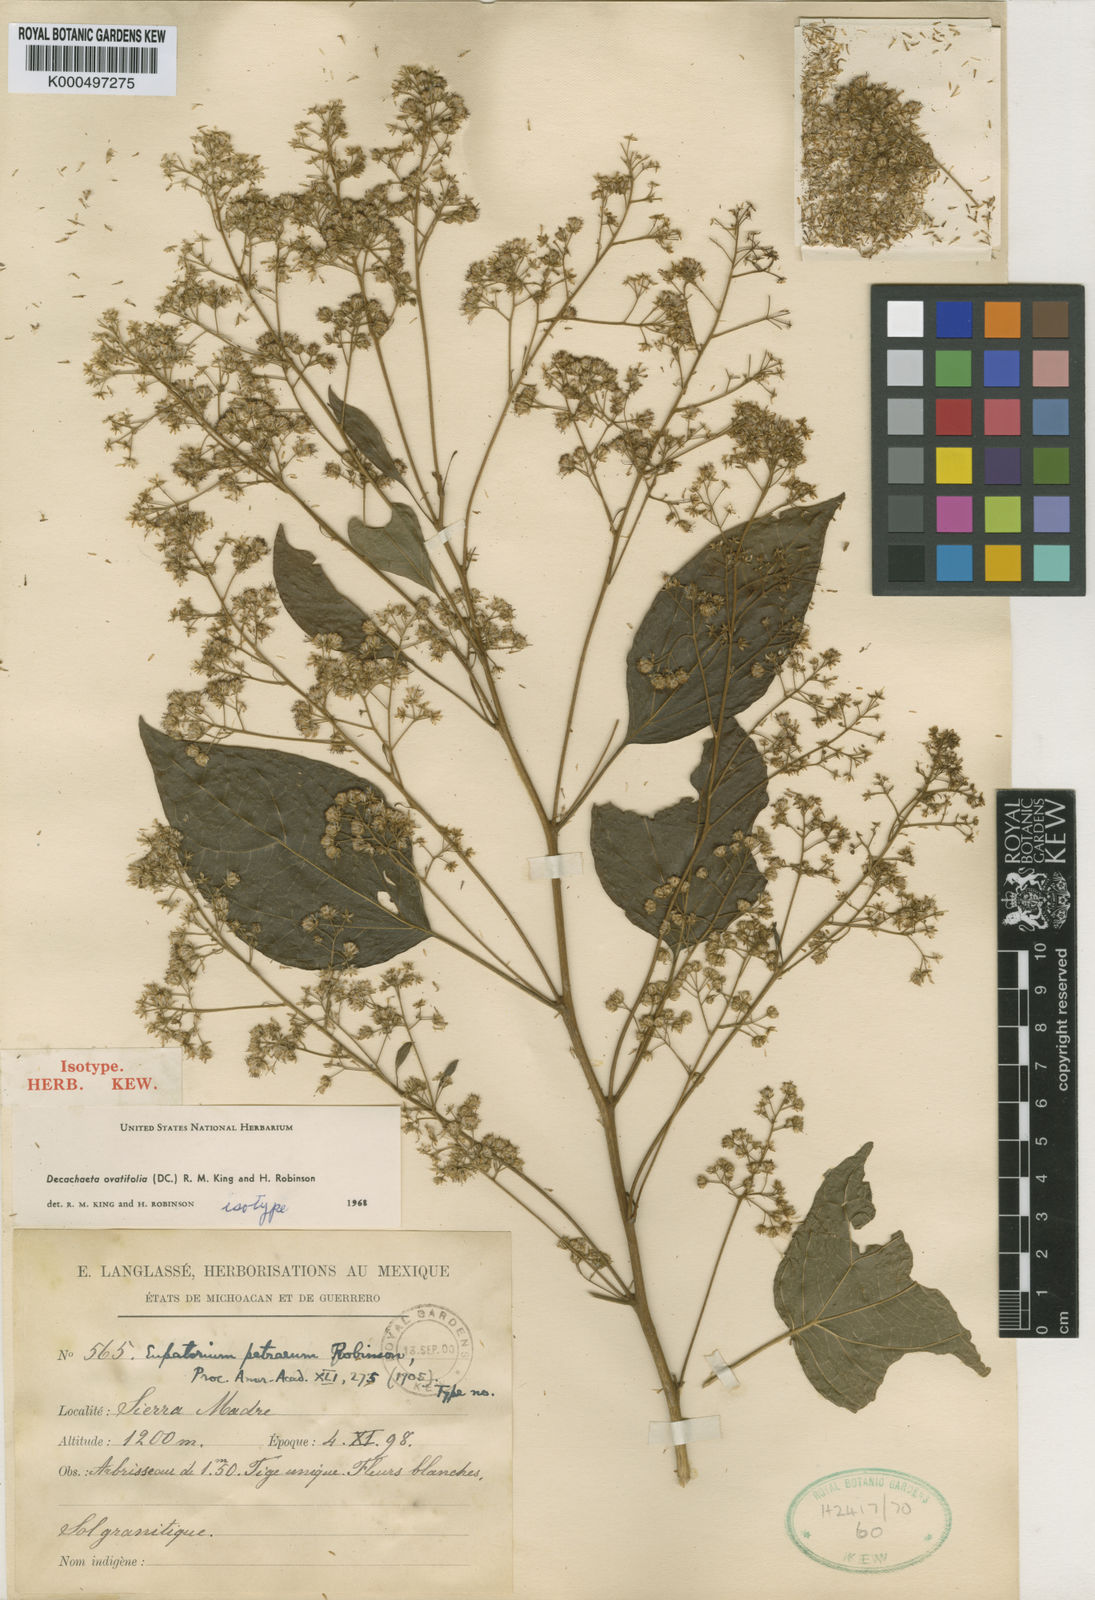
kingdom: Plantae
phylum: Tracheophyta
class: Magnoliopsida
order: Asterales
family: Asteraceae
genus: Decachaeta
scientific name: Decachaeta ovatifolia
